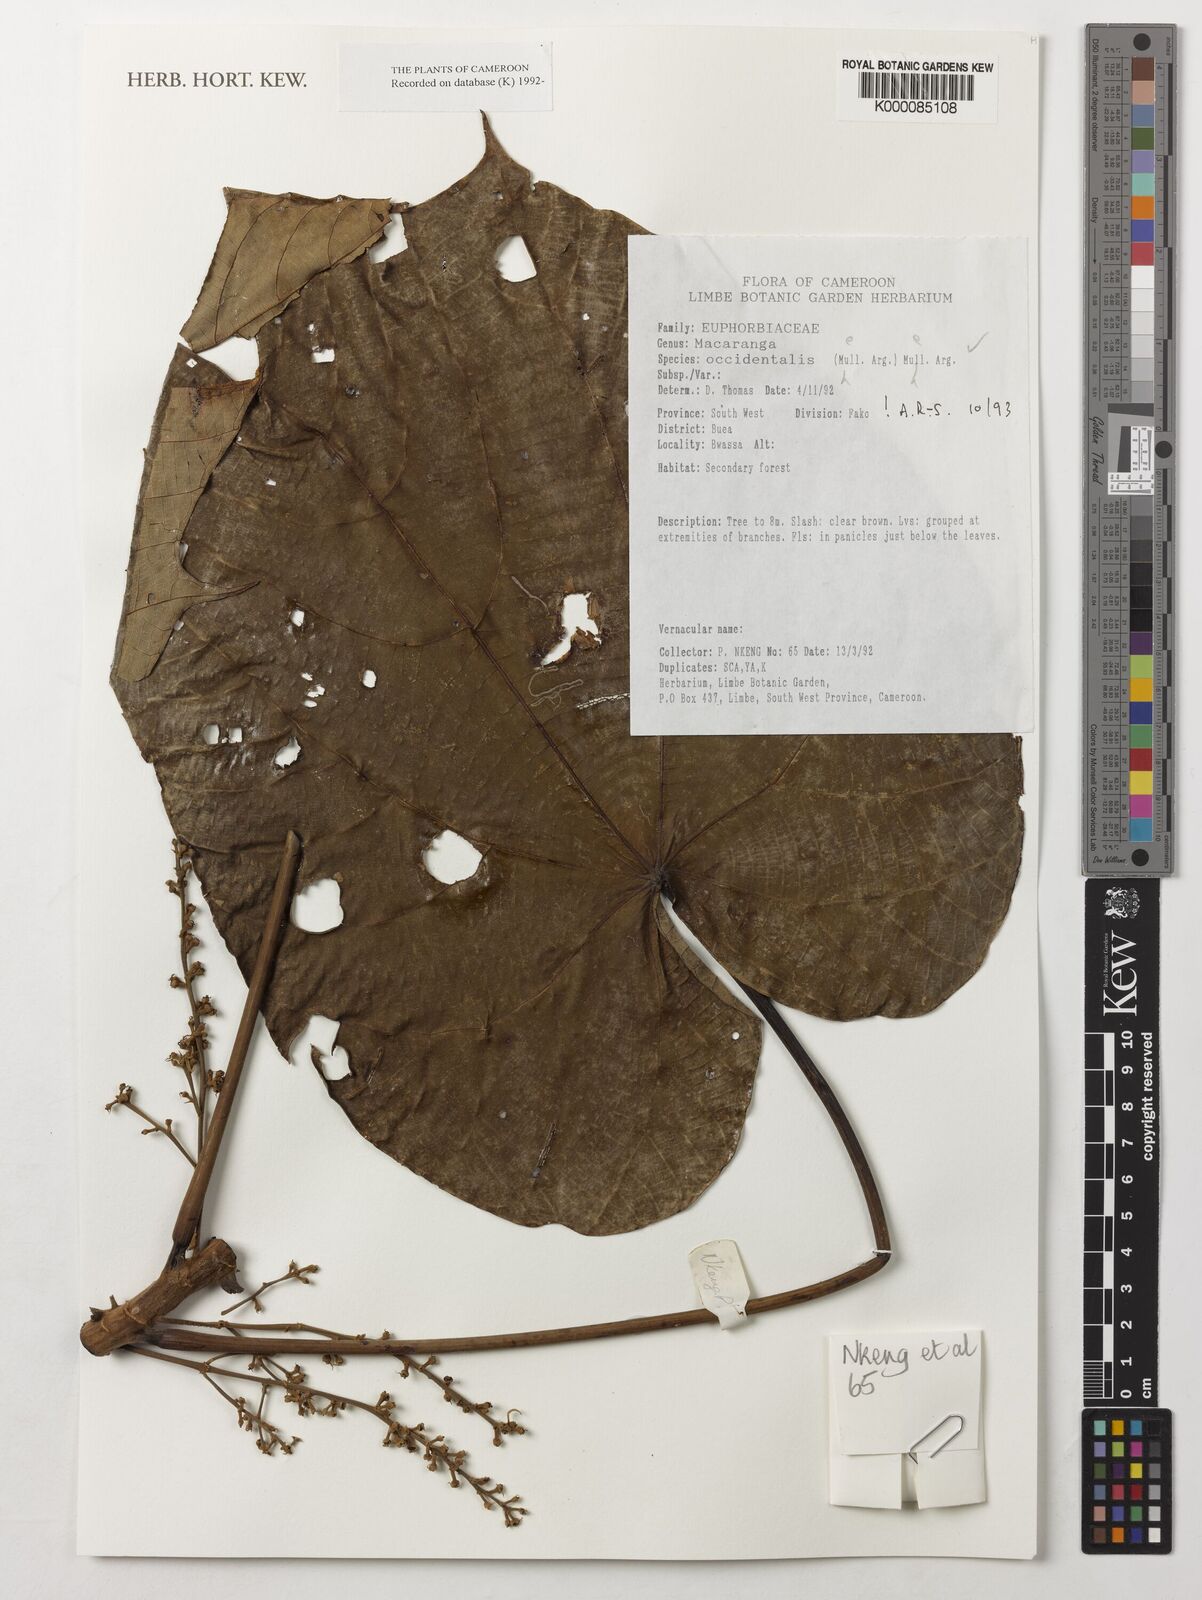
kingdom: Plantae
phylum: Tracheophyta
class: Magnoliopsida
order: Malpighiales
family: Euphorbiaceae
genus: Macaranga
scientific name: Macaranga
